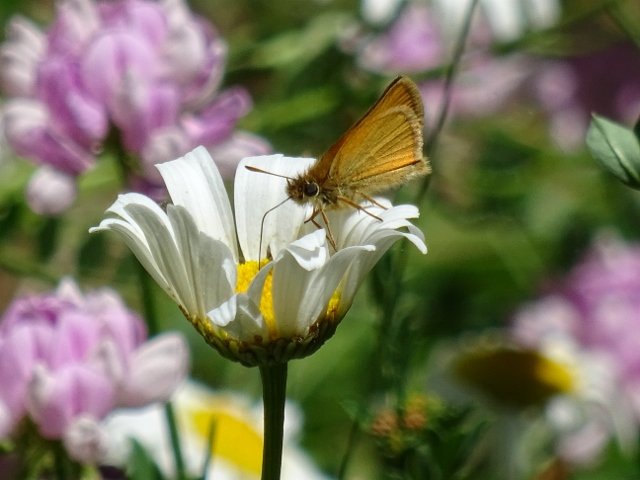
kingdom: Animalia
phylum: Arthropoda
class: Insecta
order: Lepidoptera
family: Hesperiidae
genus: Thymelicus
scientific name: Thymelicus lineola
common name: European Skipper
